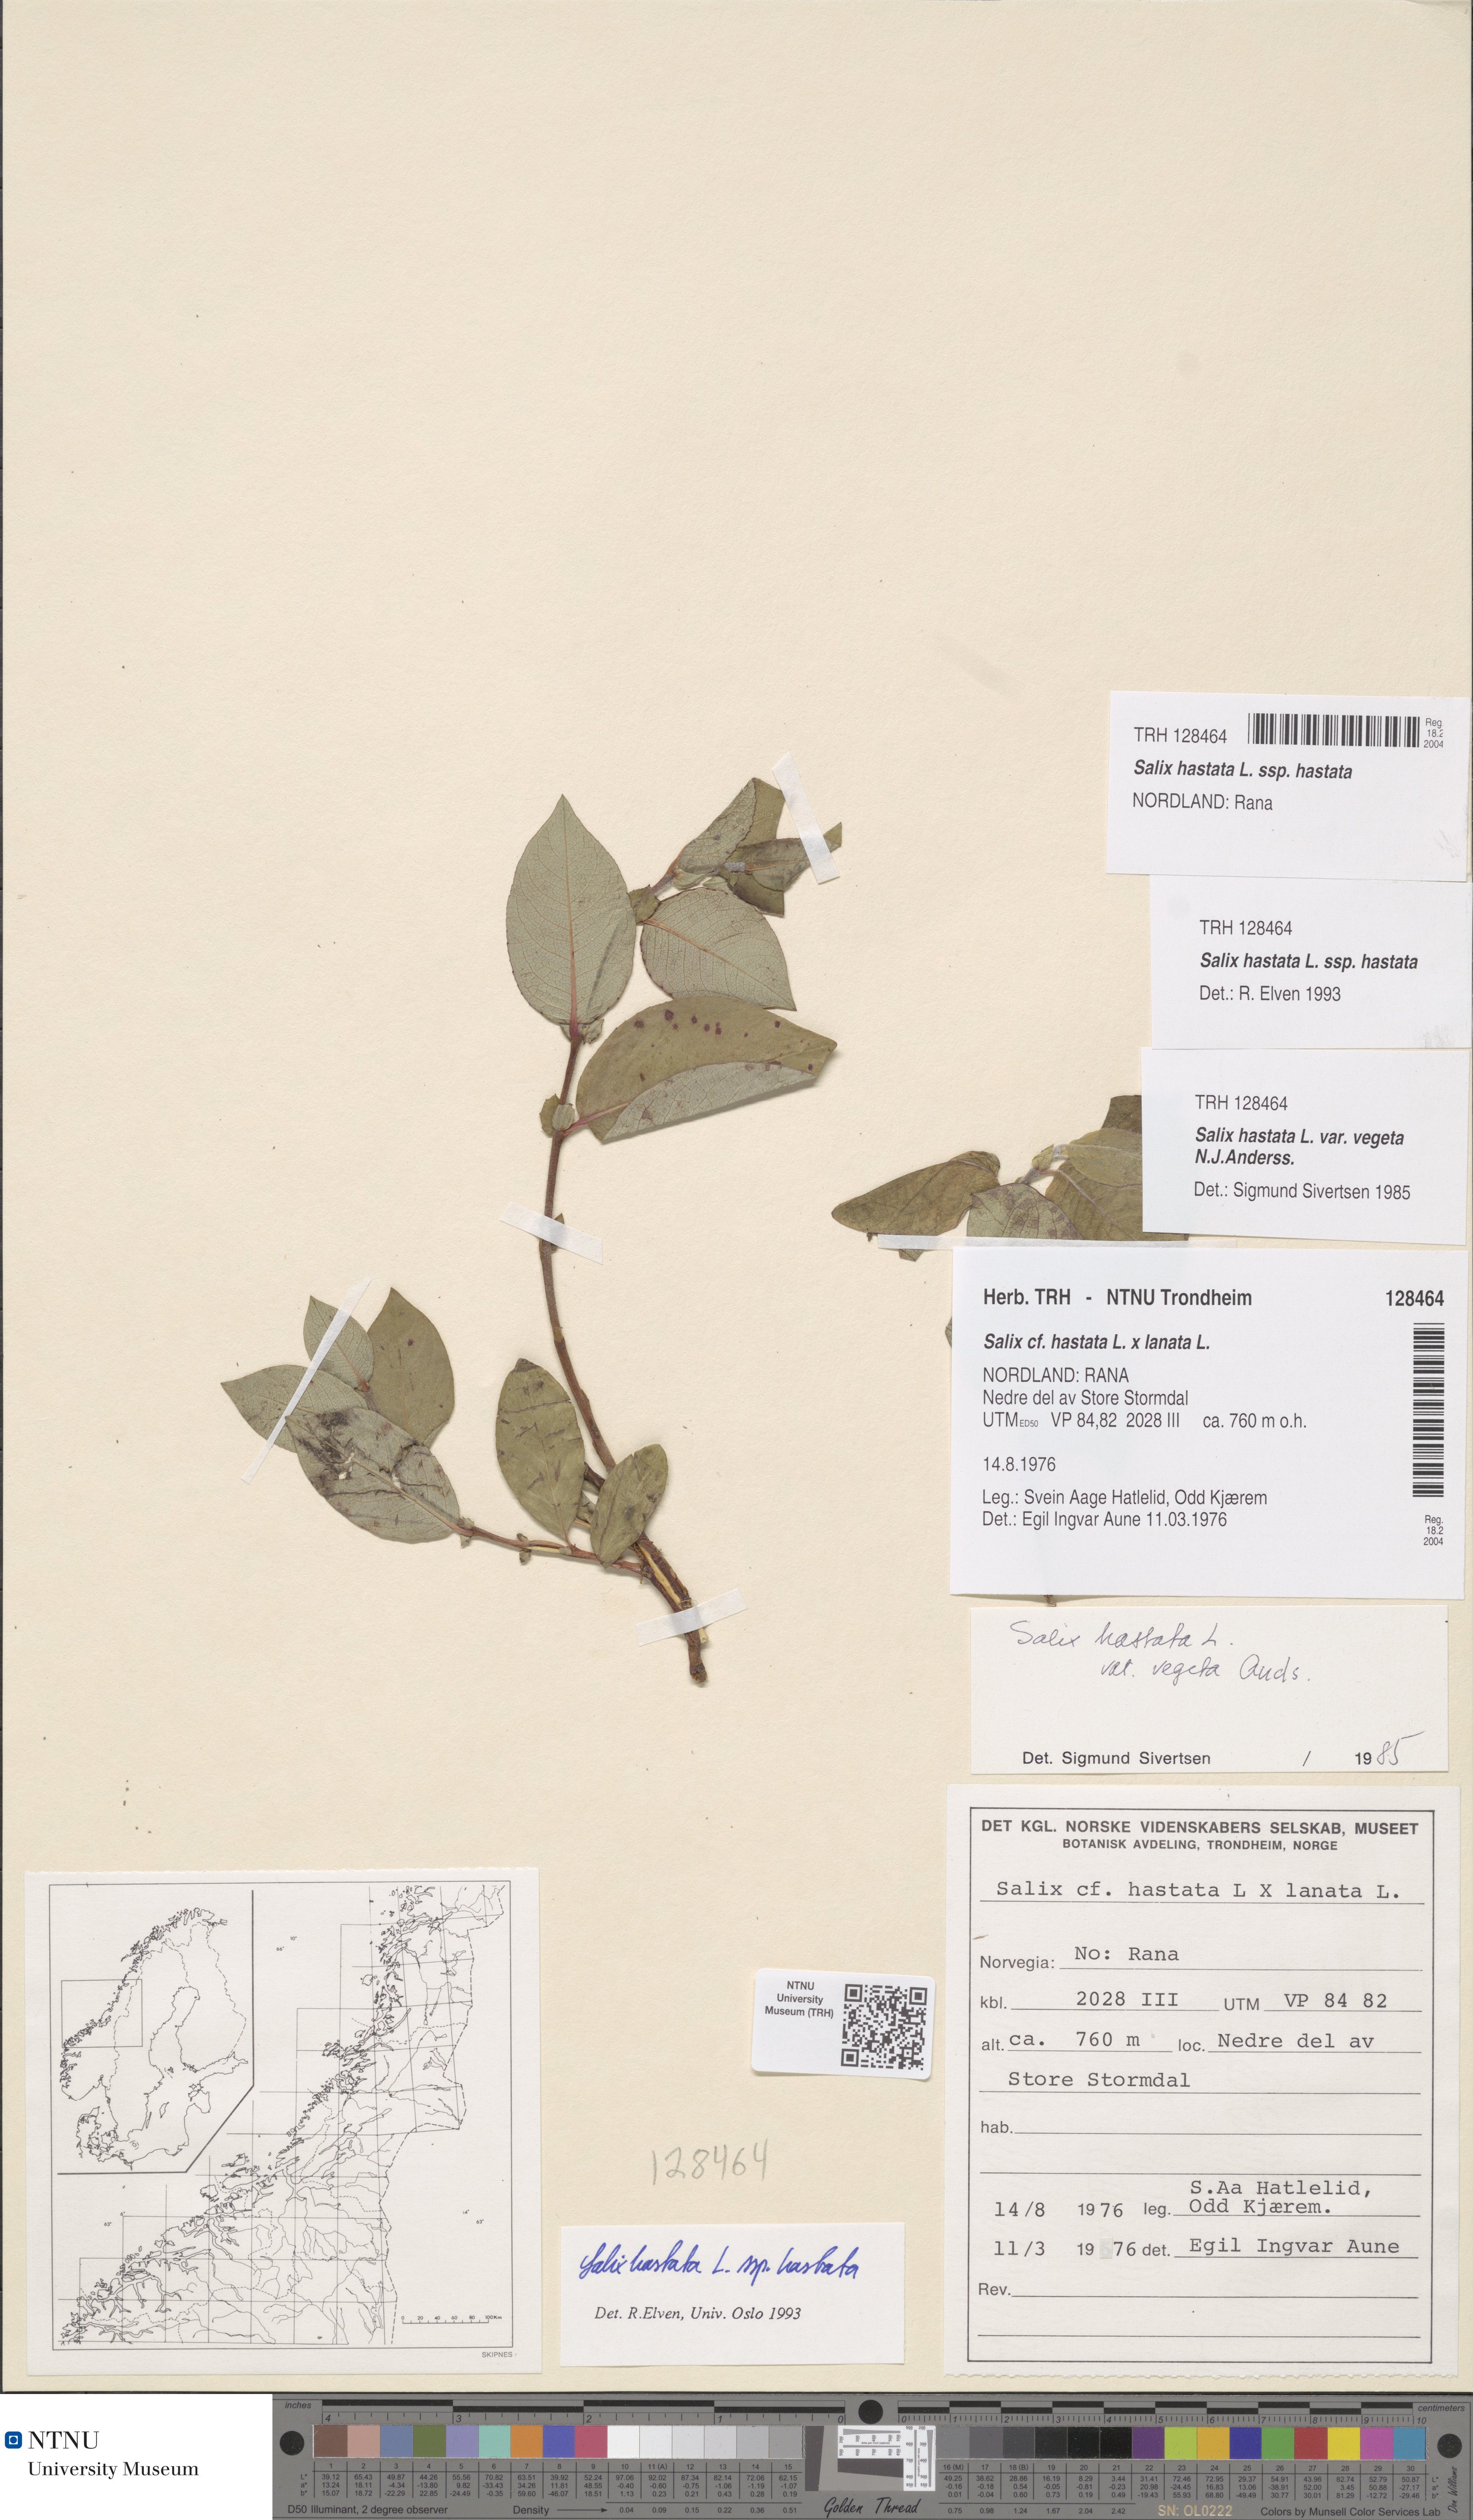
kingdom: Plantae
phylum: Tracheophyta
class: Magnoliopsida
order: Malpighiales
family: Salicaceae
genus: Salix
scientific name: Salix hastata
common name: Halberd willow
